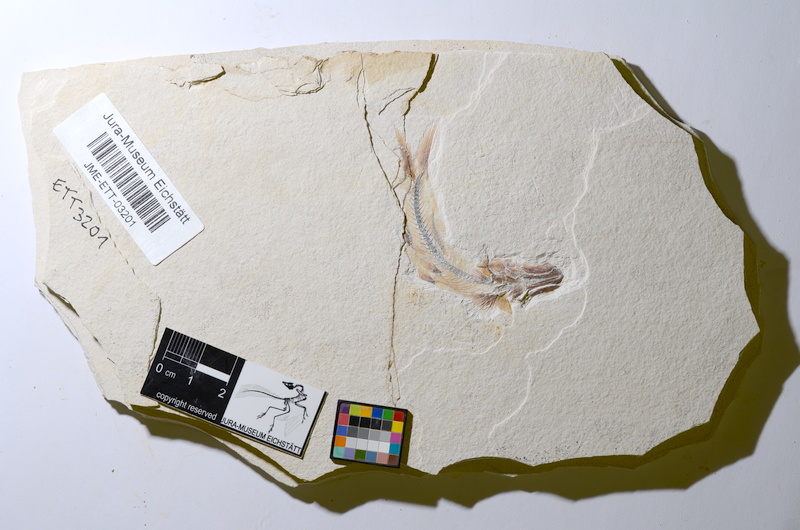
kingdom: Animalia
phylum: Chordata
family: Ascalaboidae
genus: Ebertichthys
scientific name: Ebertichthys ettlingensis
